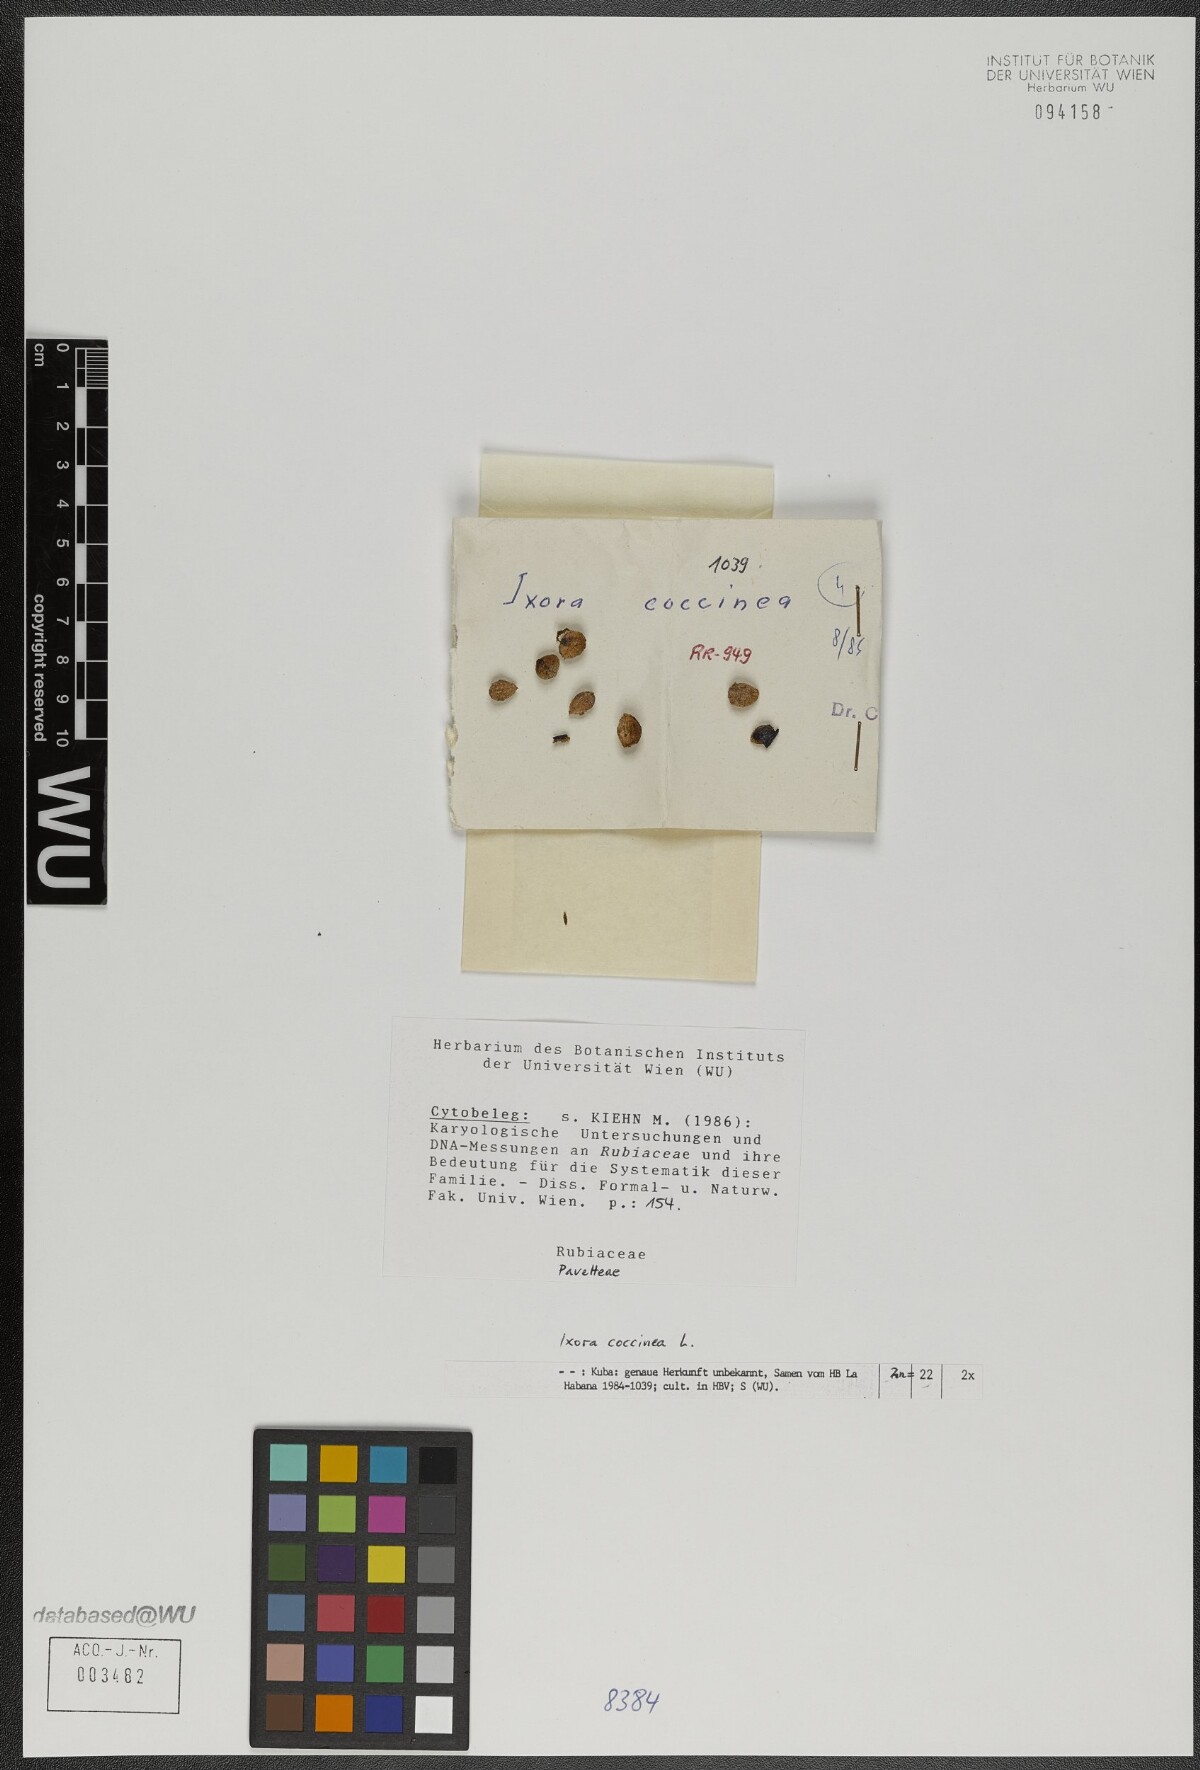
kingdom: Plantae
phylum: Tracheophyta
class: Magnoliopsida
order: Gentianales
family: Rubiaceae
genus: Ixora
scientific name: Ixora coccinea
